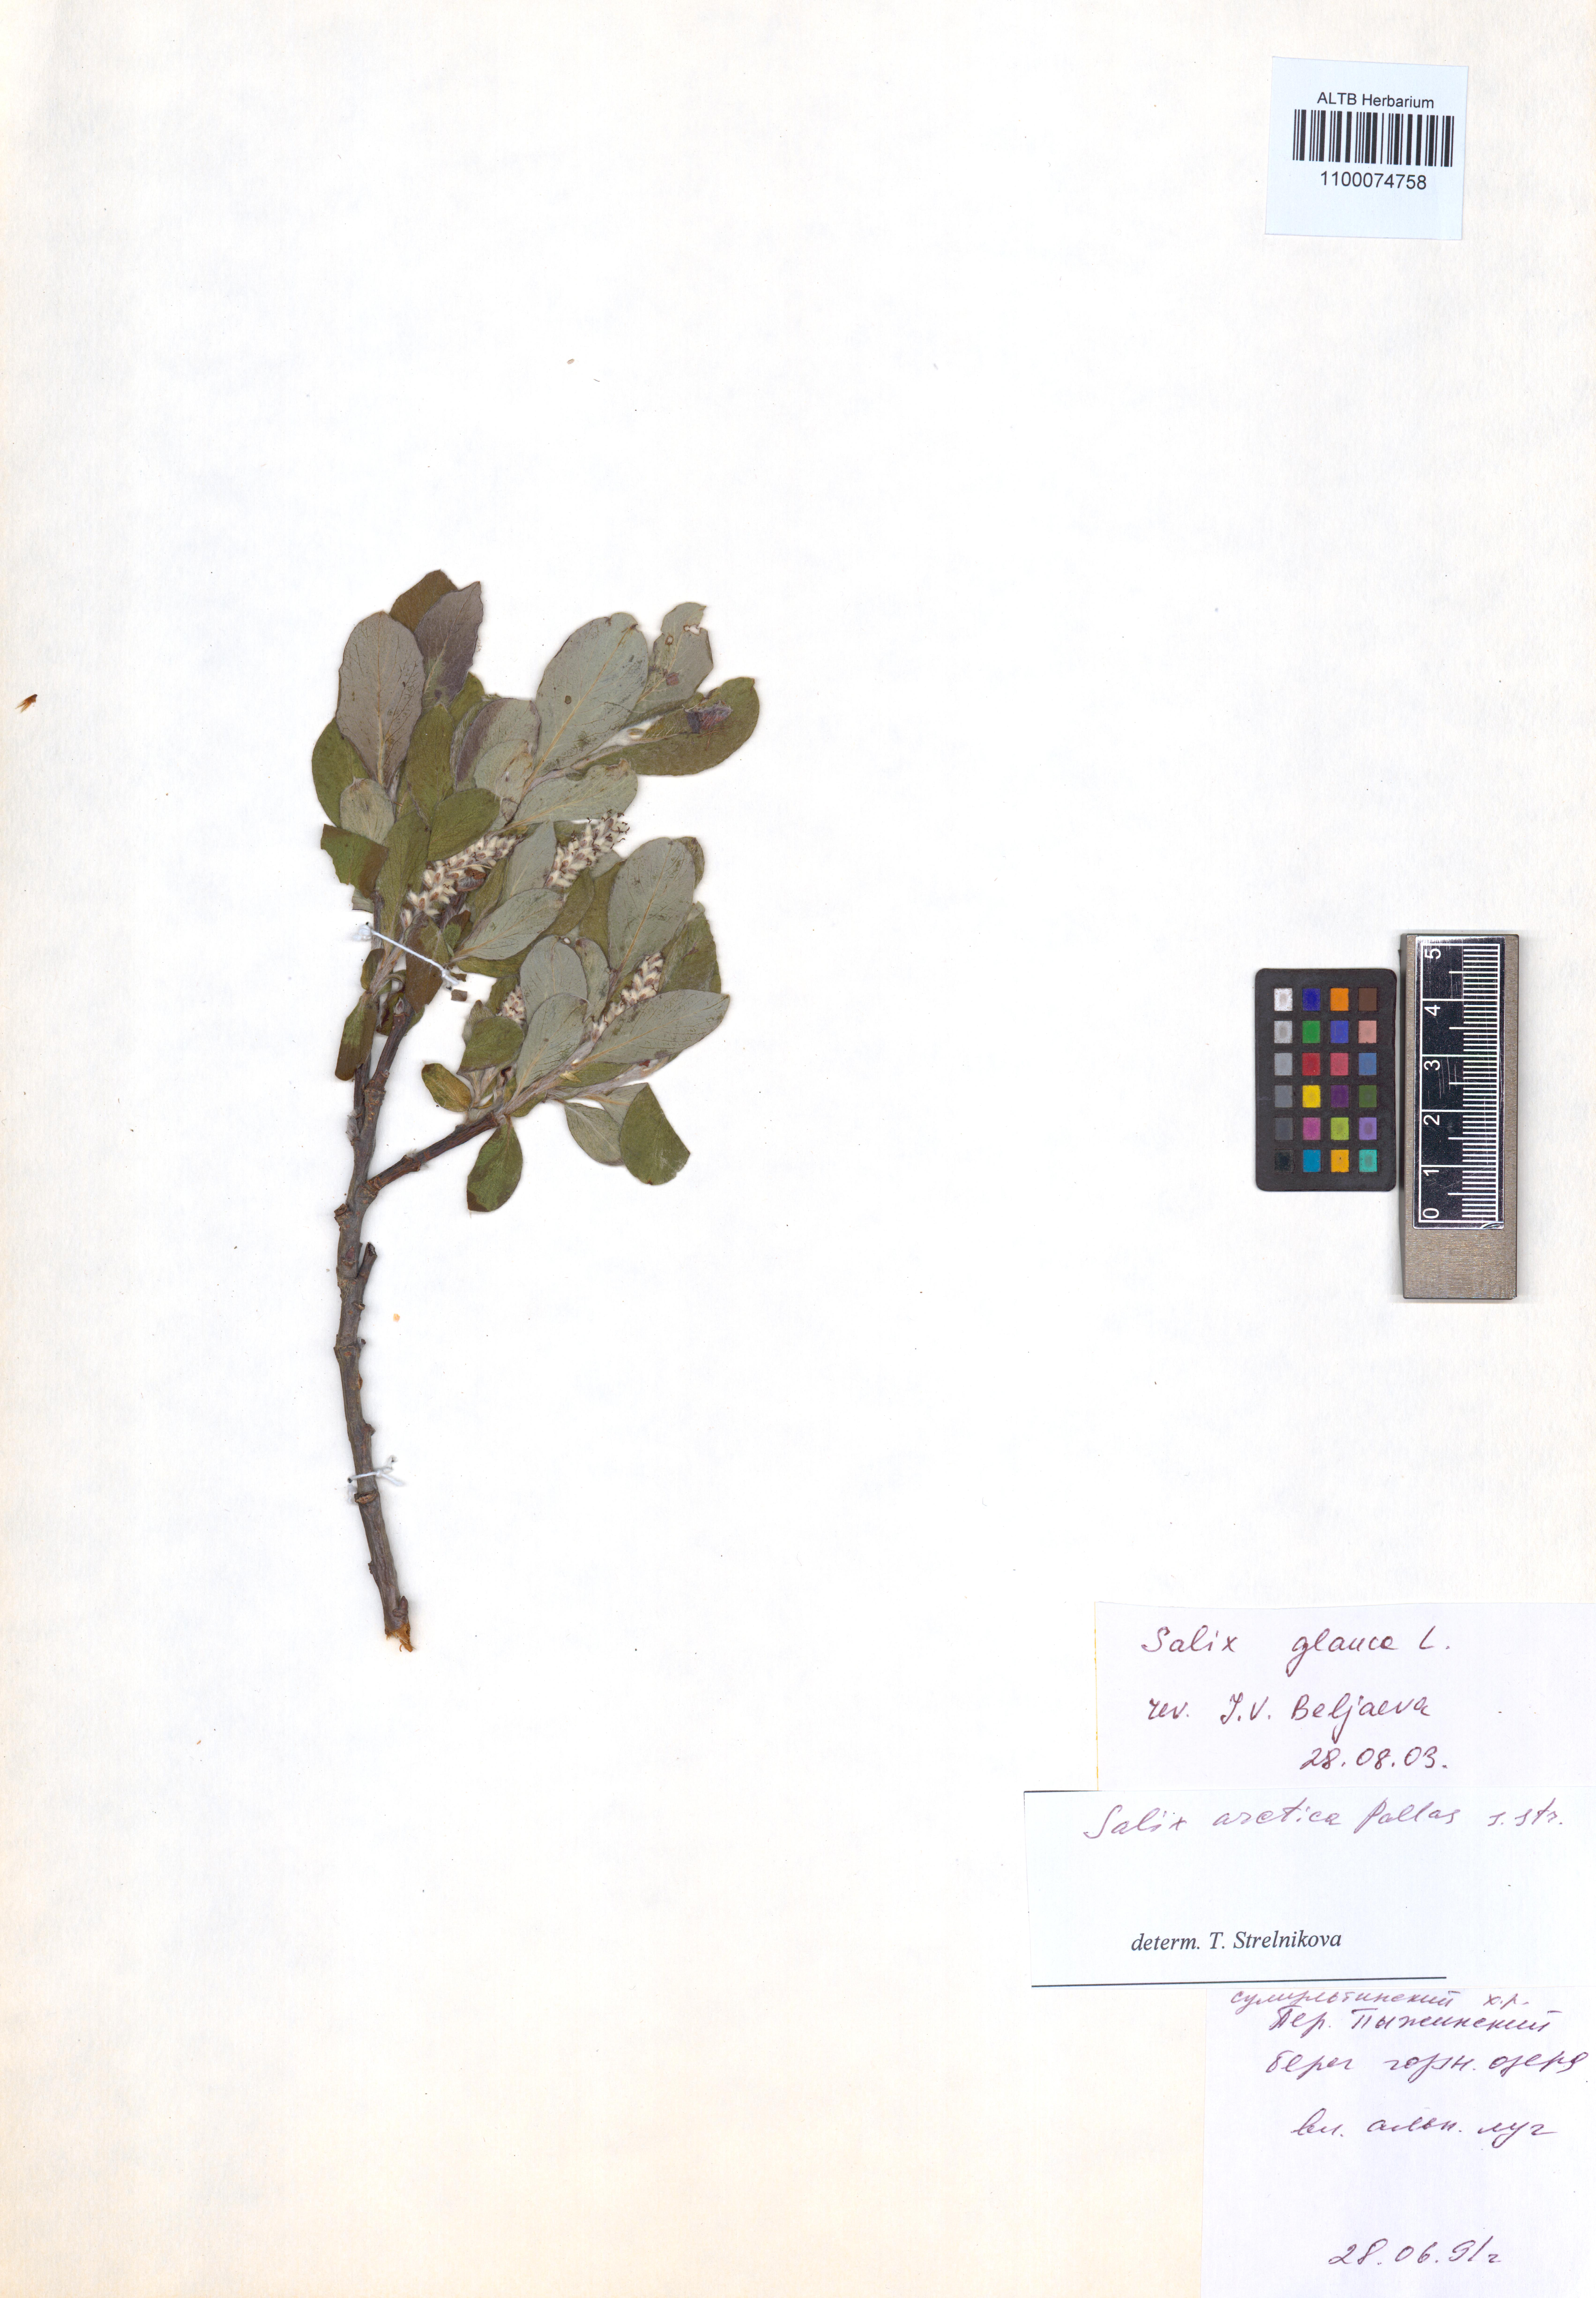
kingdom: Plantae
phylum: Tracheophyta
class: Magnoliopsida
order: Malpighiales
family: Salicaceae
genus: Salix
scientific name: Salix glauca
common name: Glaucous willow
